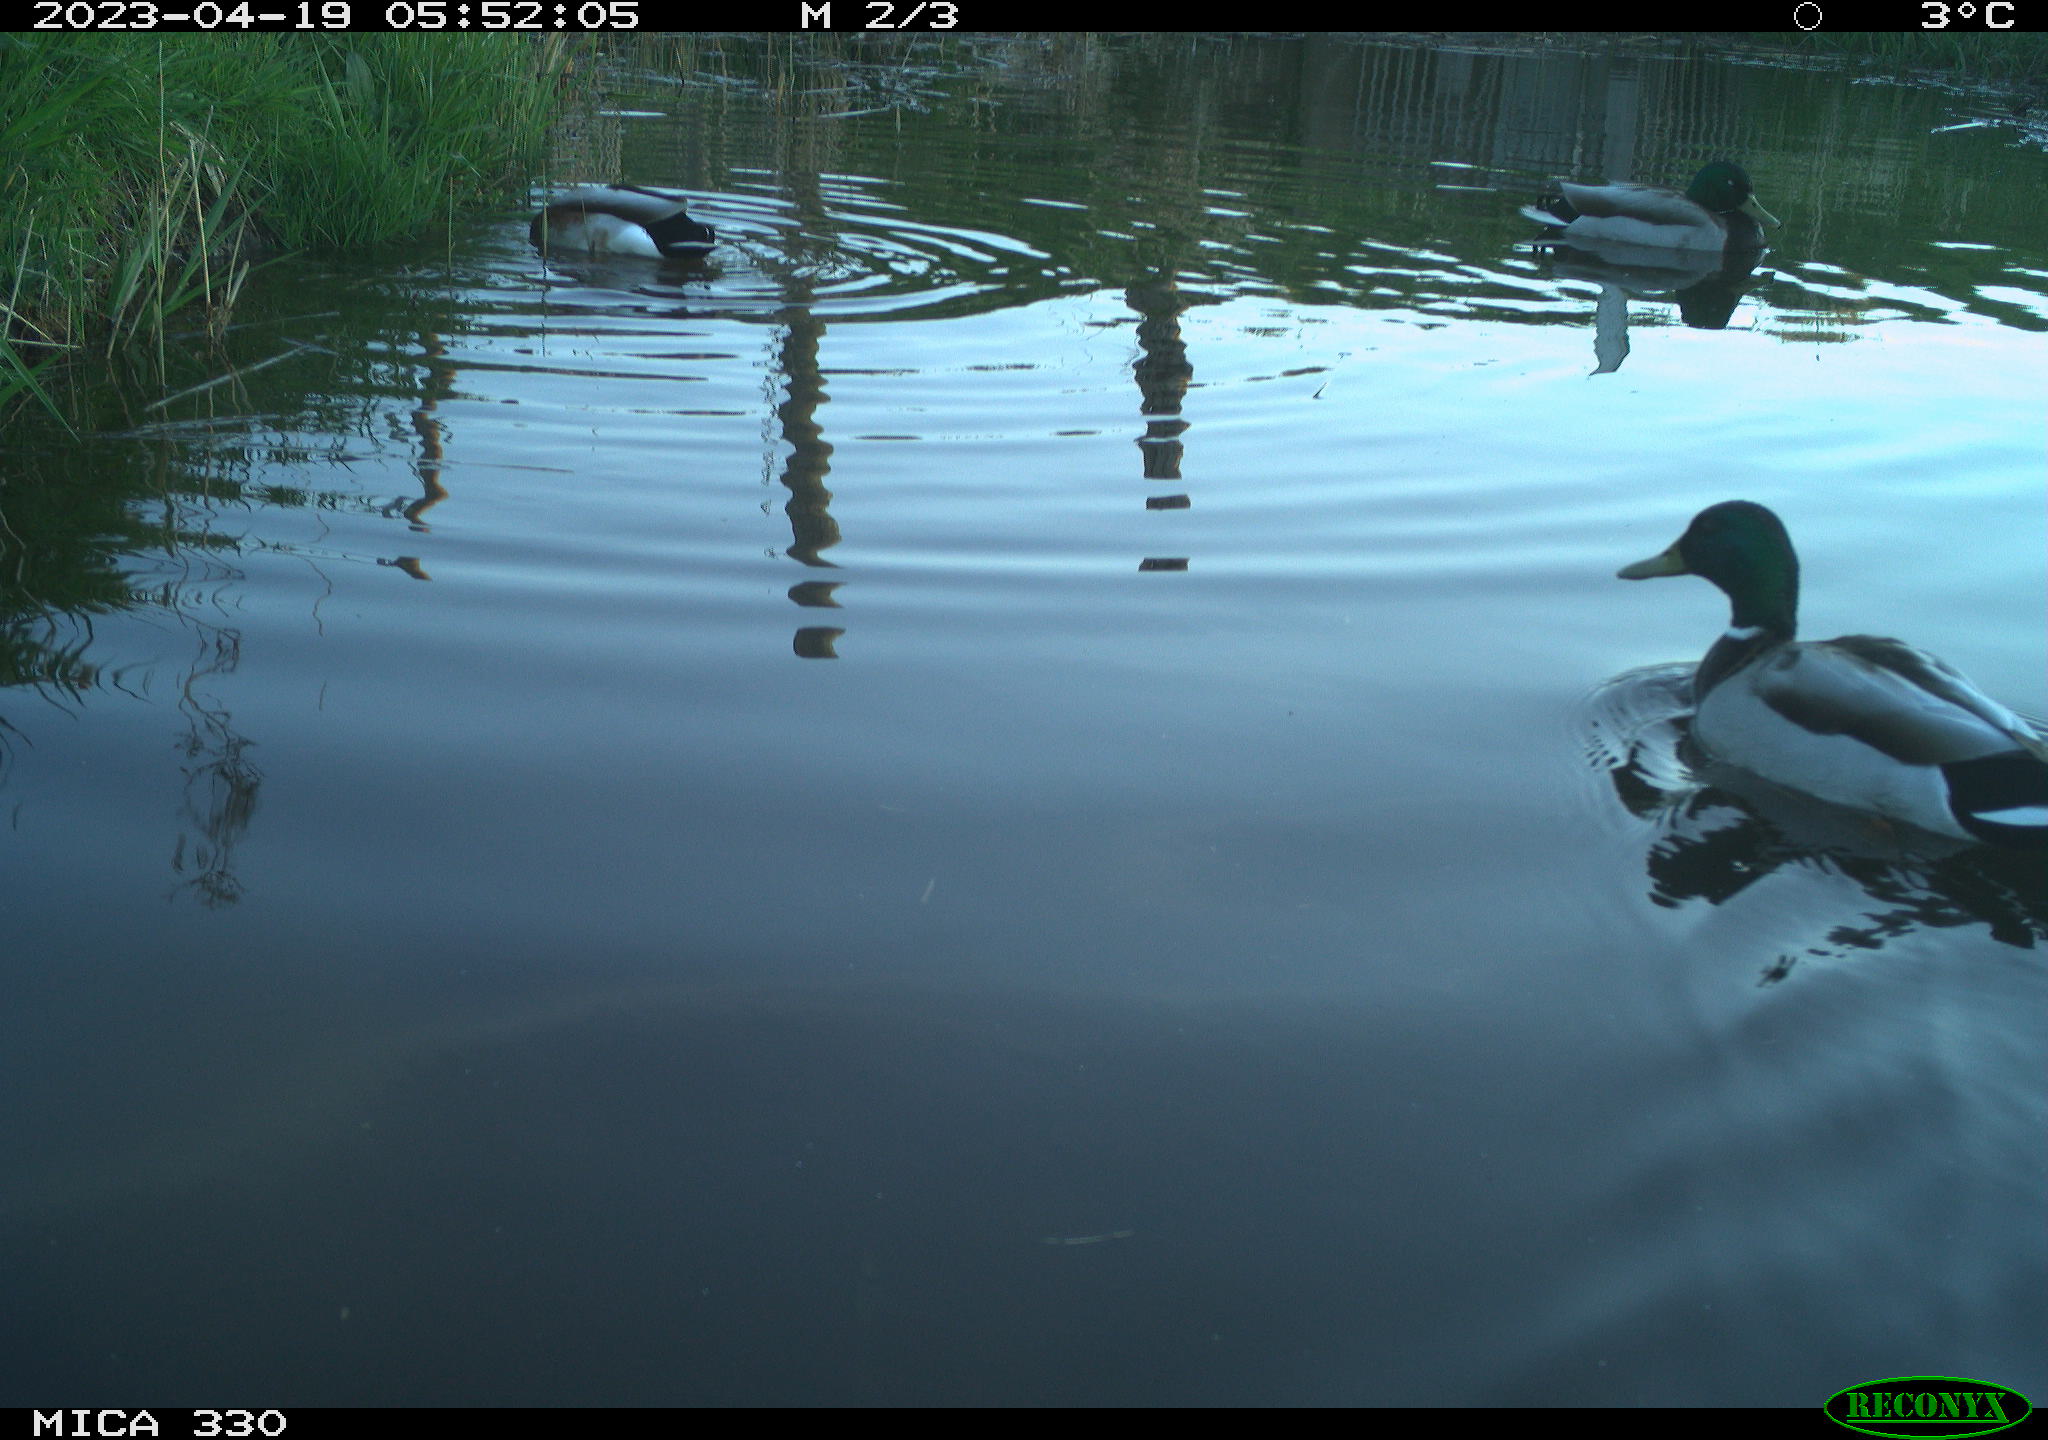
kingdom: Animalia
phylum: Chordata
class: Aves
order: Anseriformes
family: Anatidae
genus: Anas
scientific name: Anas
